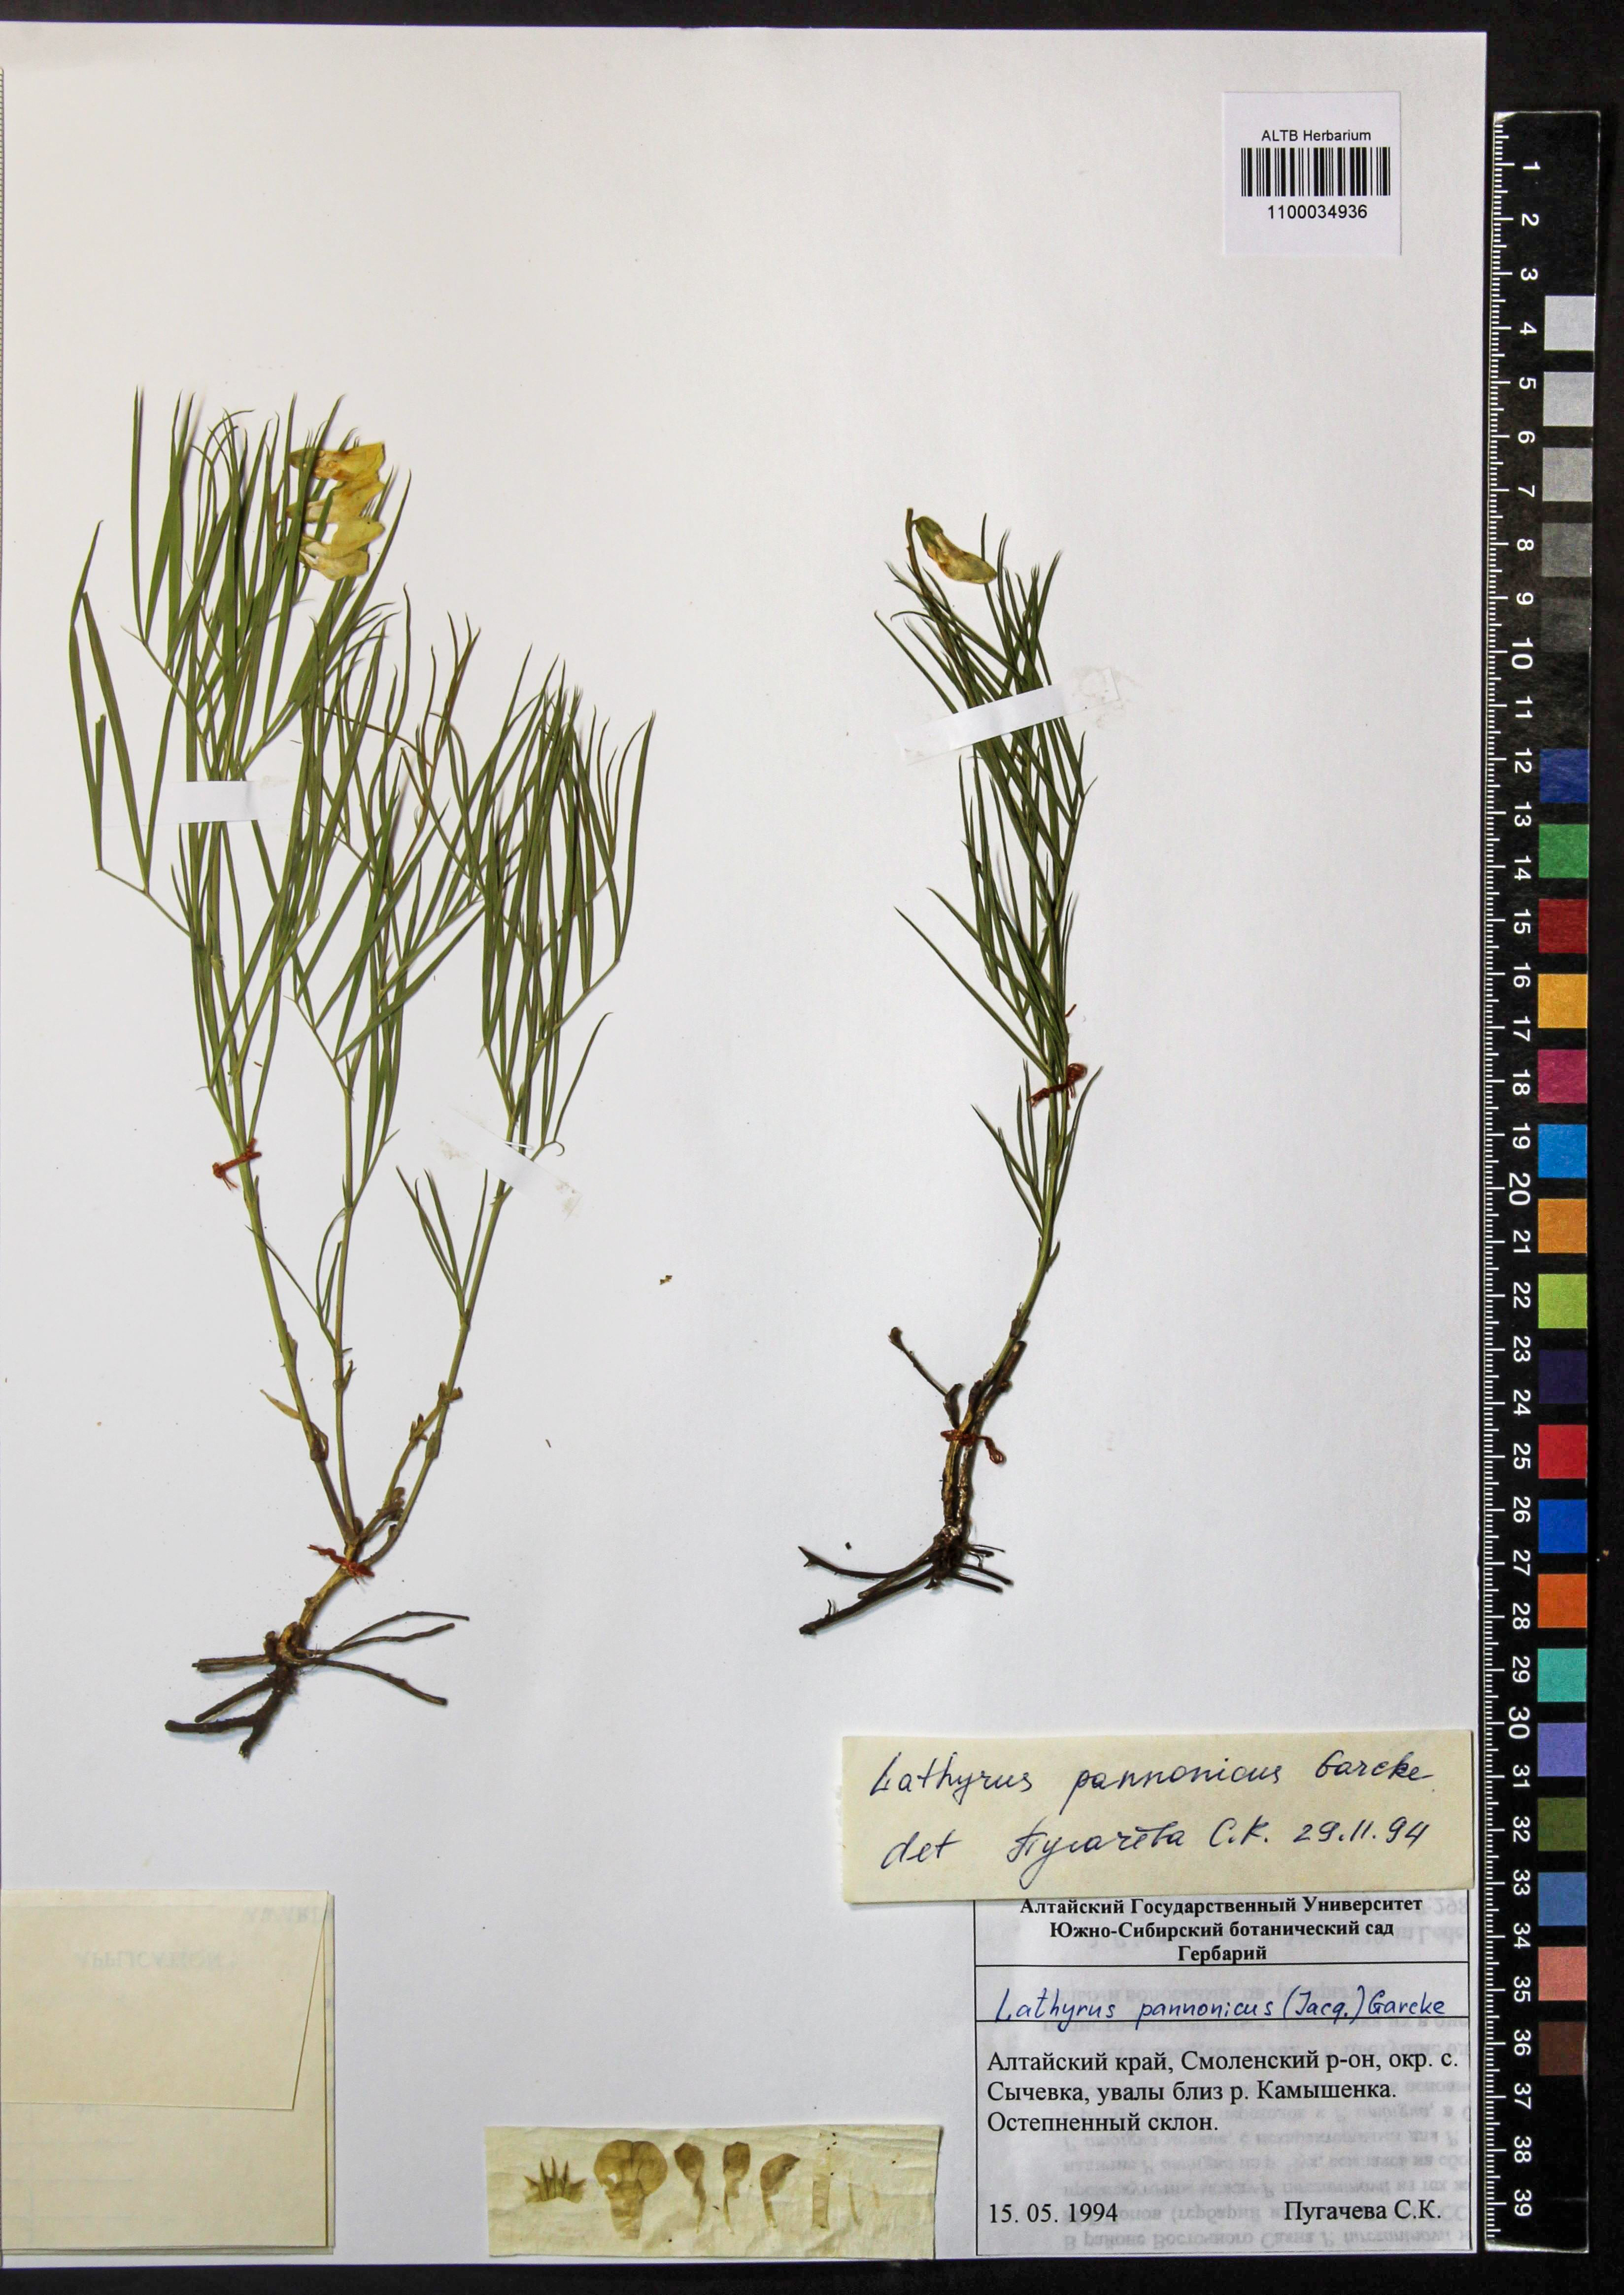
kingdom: Plantae
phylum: Tracheophyta
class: Magnoliopsida
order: Fabales
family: Fabaceae
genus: Lathyrus
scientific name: Lathyrus pannonicus
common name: Pea
